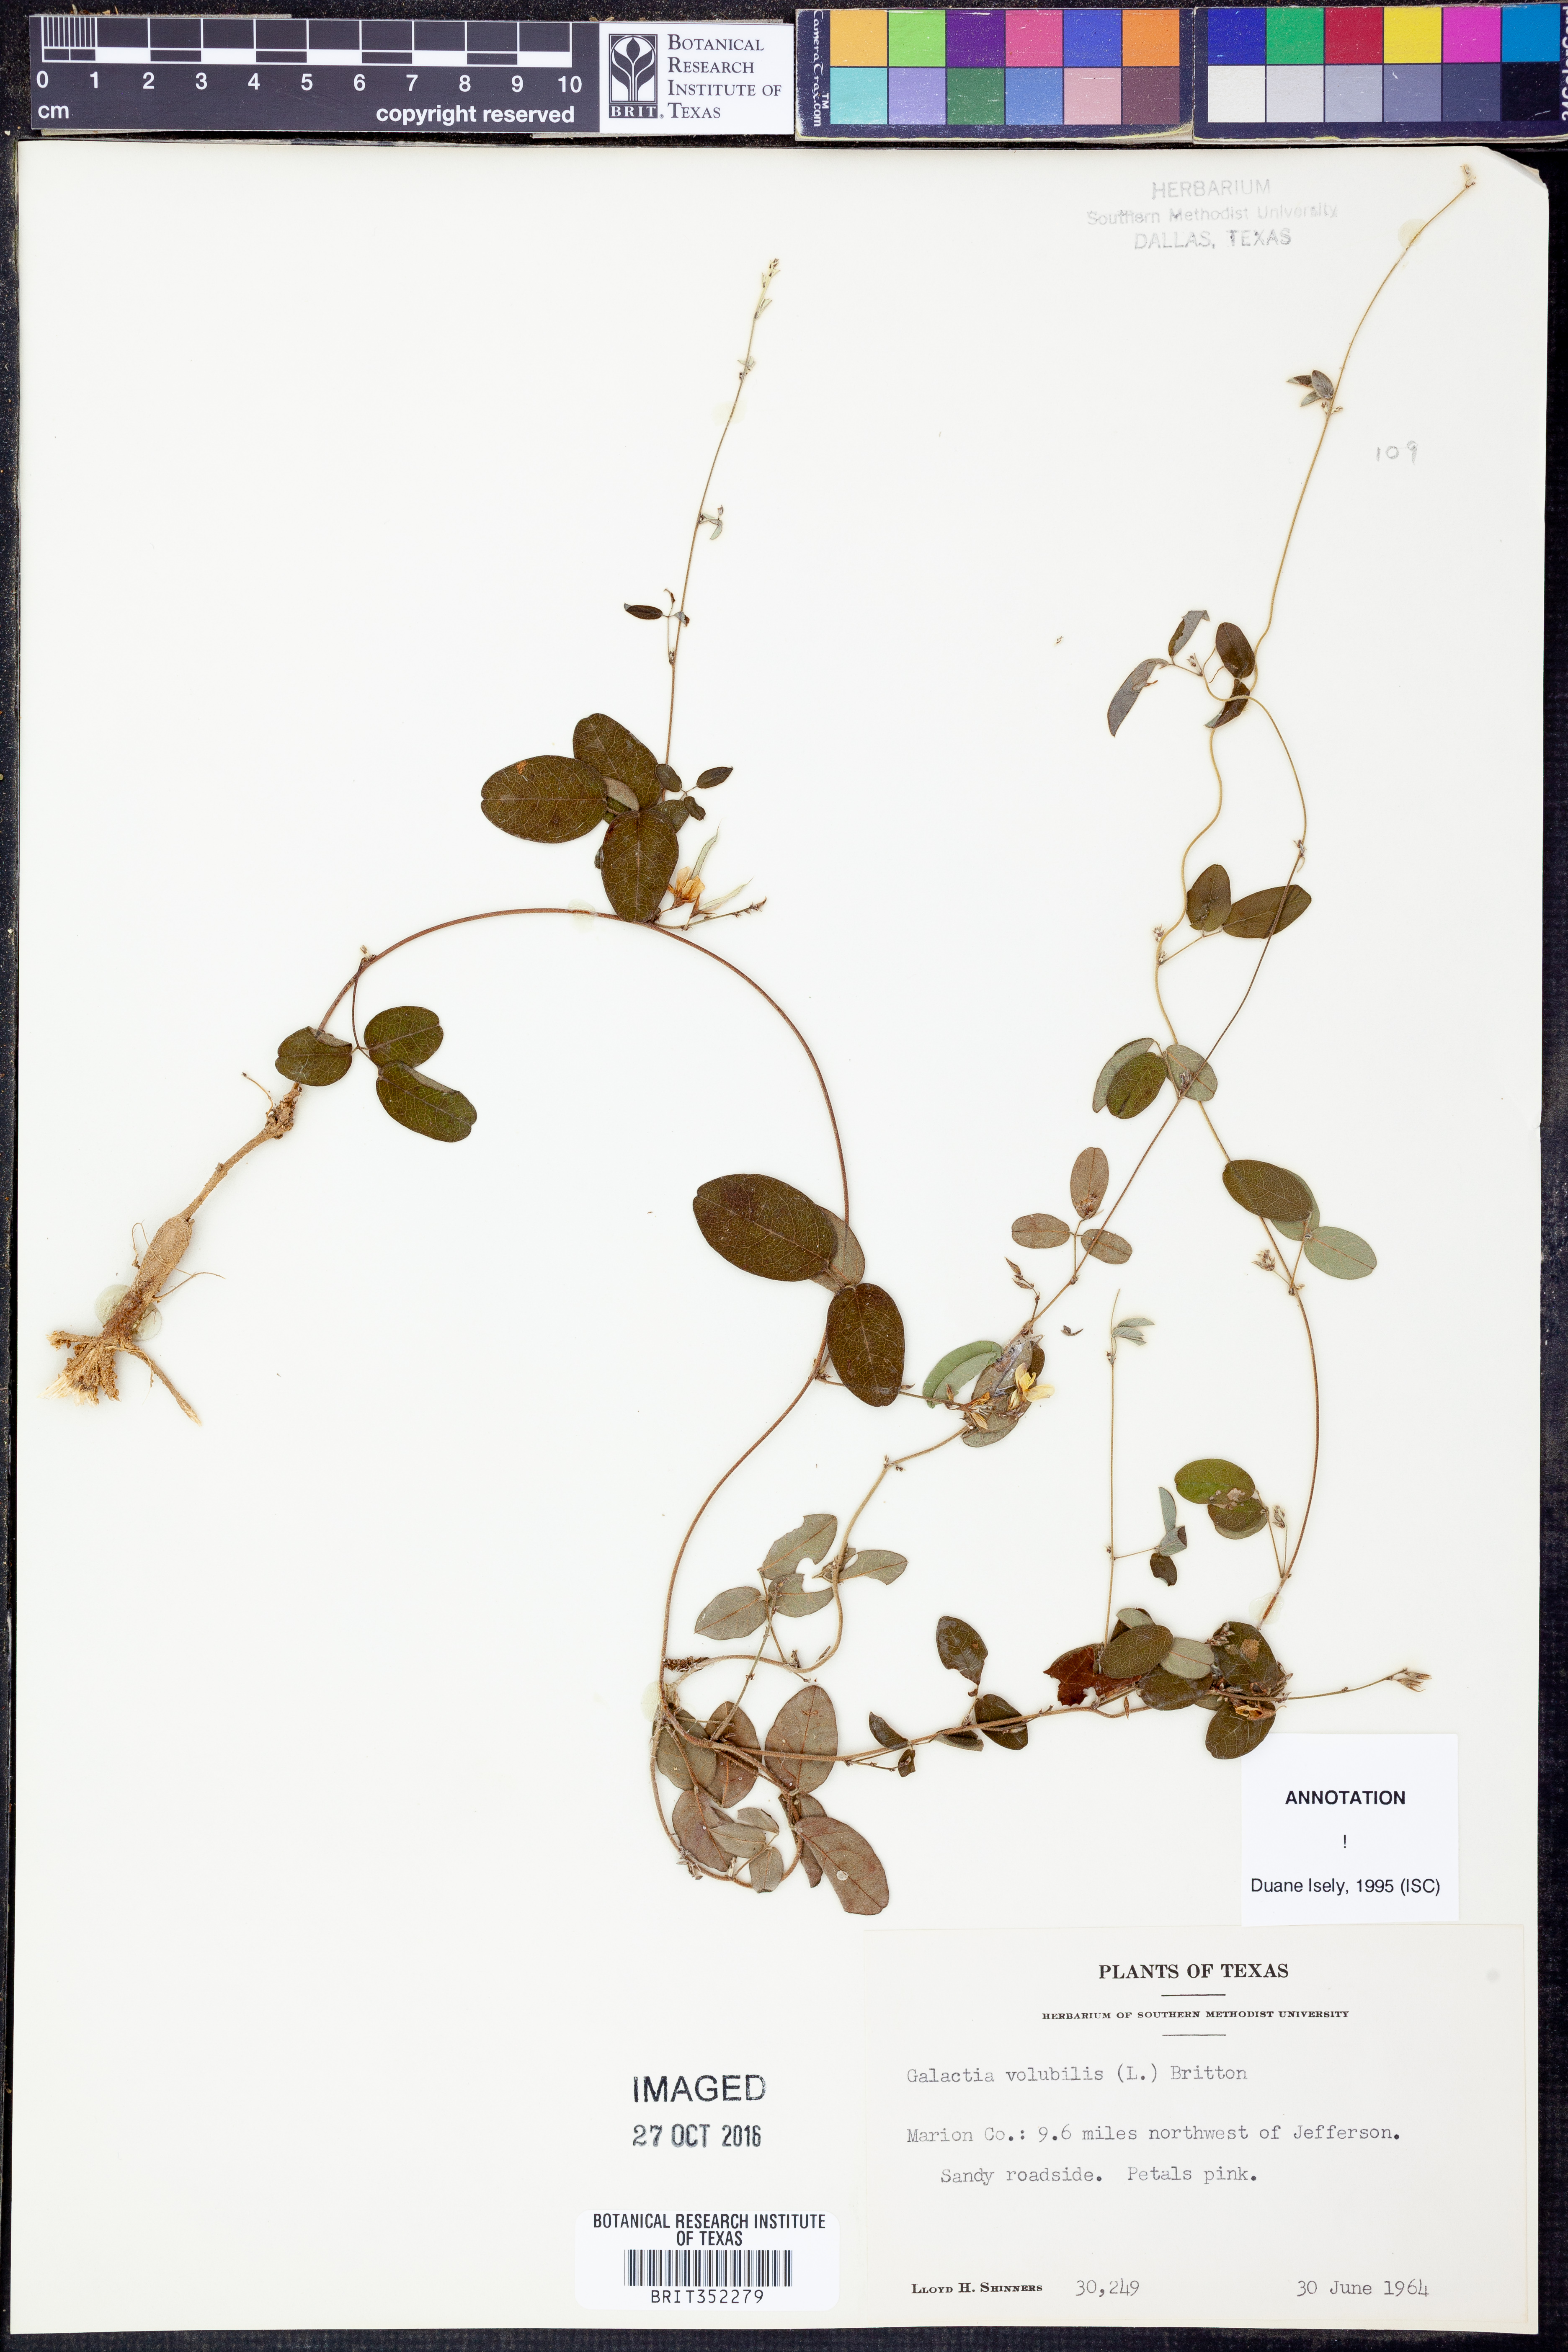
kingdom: Plantae
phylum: Tracheophyta
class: Magnoliopsida
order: Fabales
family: Fabaceae
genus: Galactia
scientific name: Galactia volubilis
